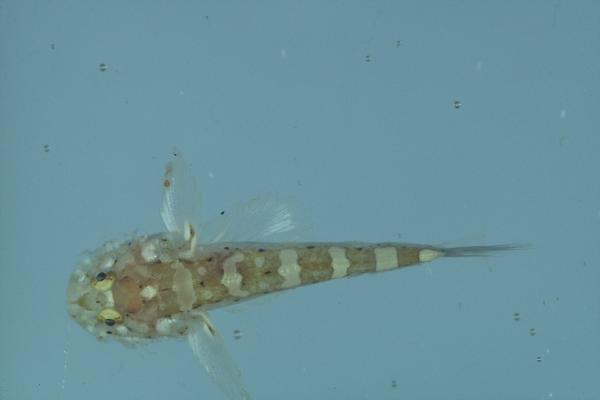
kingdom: Animalia
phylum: Chordata
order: Perciformes
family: Gobiidae
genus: Barbuligobius
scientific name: Barbuligobius boehlkei
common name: Bearded goby
